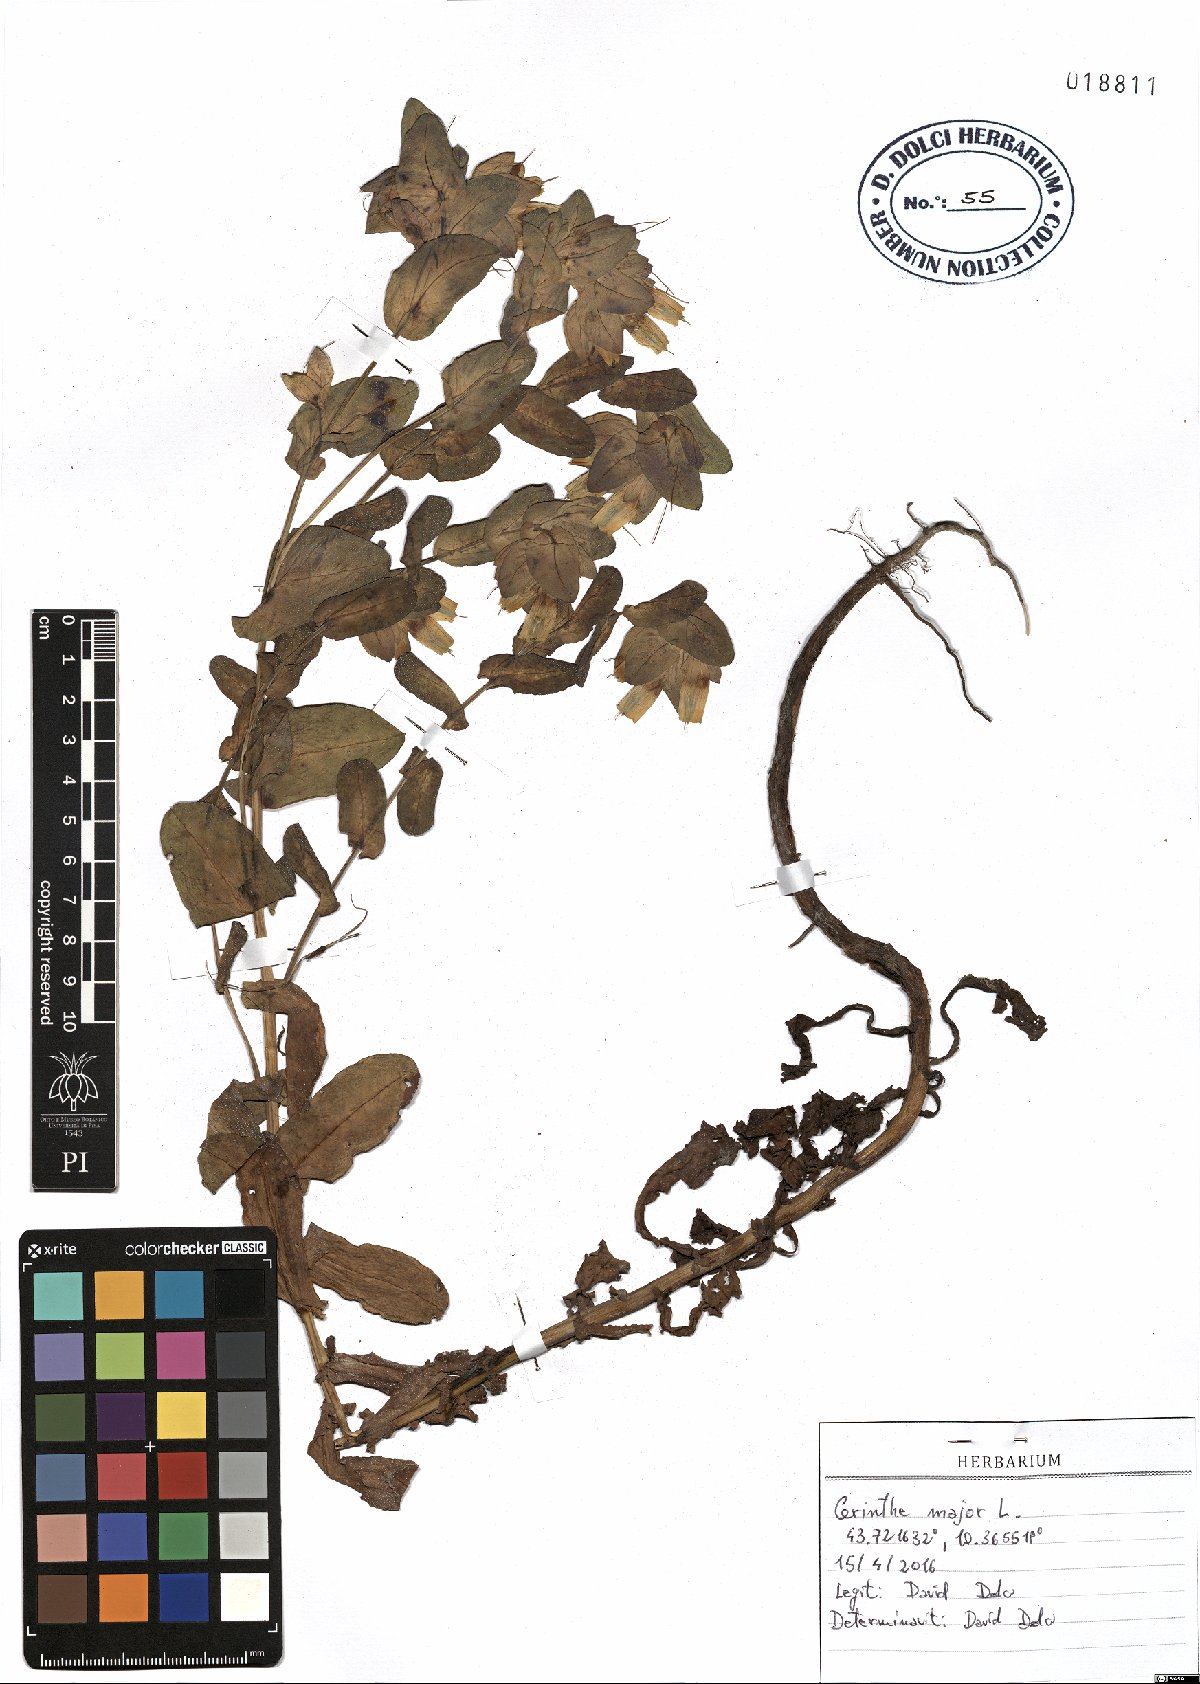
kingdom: Plantae
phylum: Tracheophyta
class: Magnoliopsida
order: Boraginales
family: Boraginaceae
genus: Cerinthe
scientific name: Cerinthe major
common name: Greater honeywort
